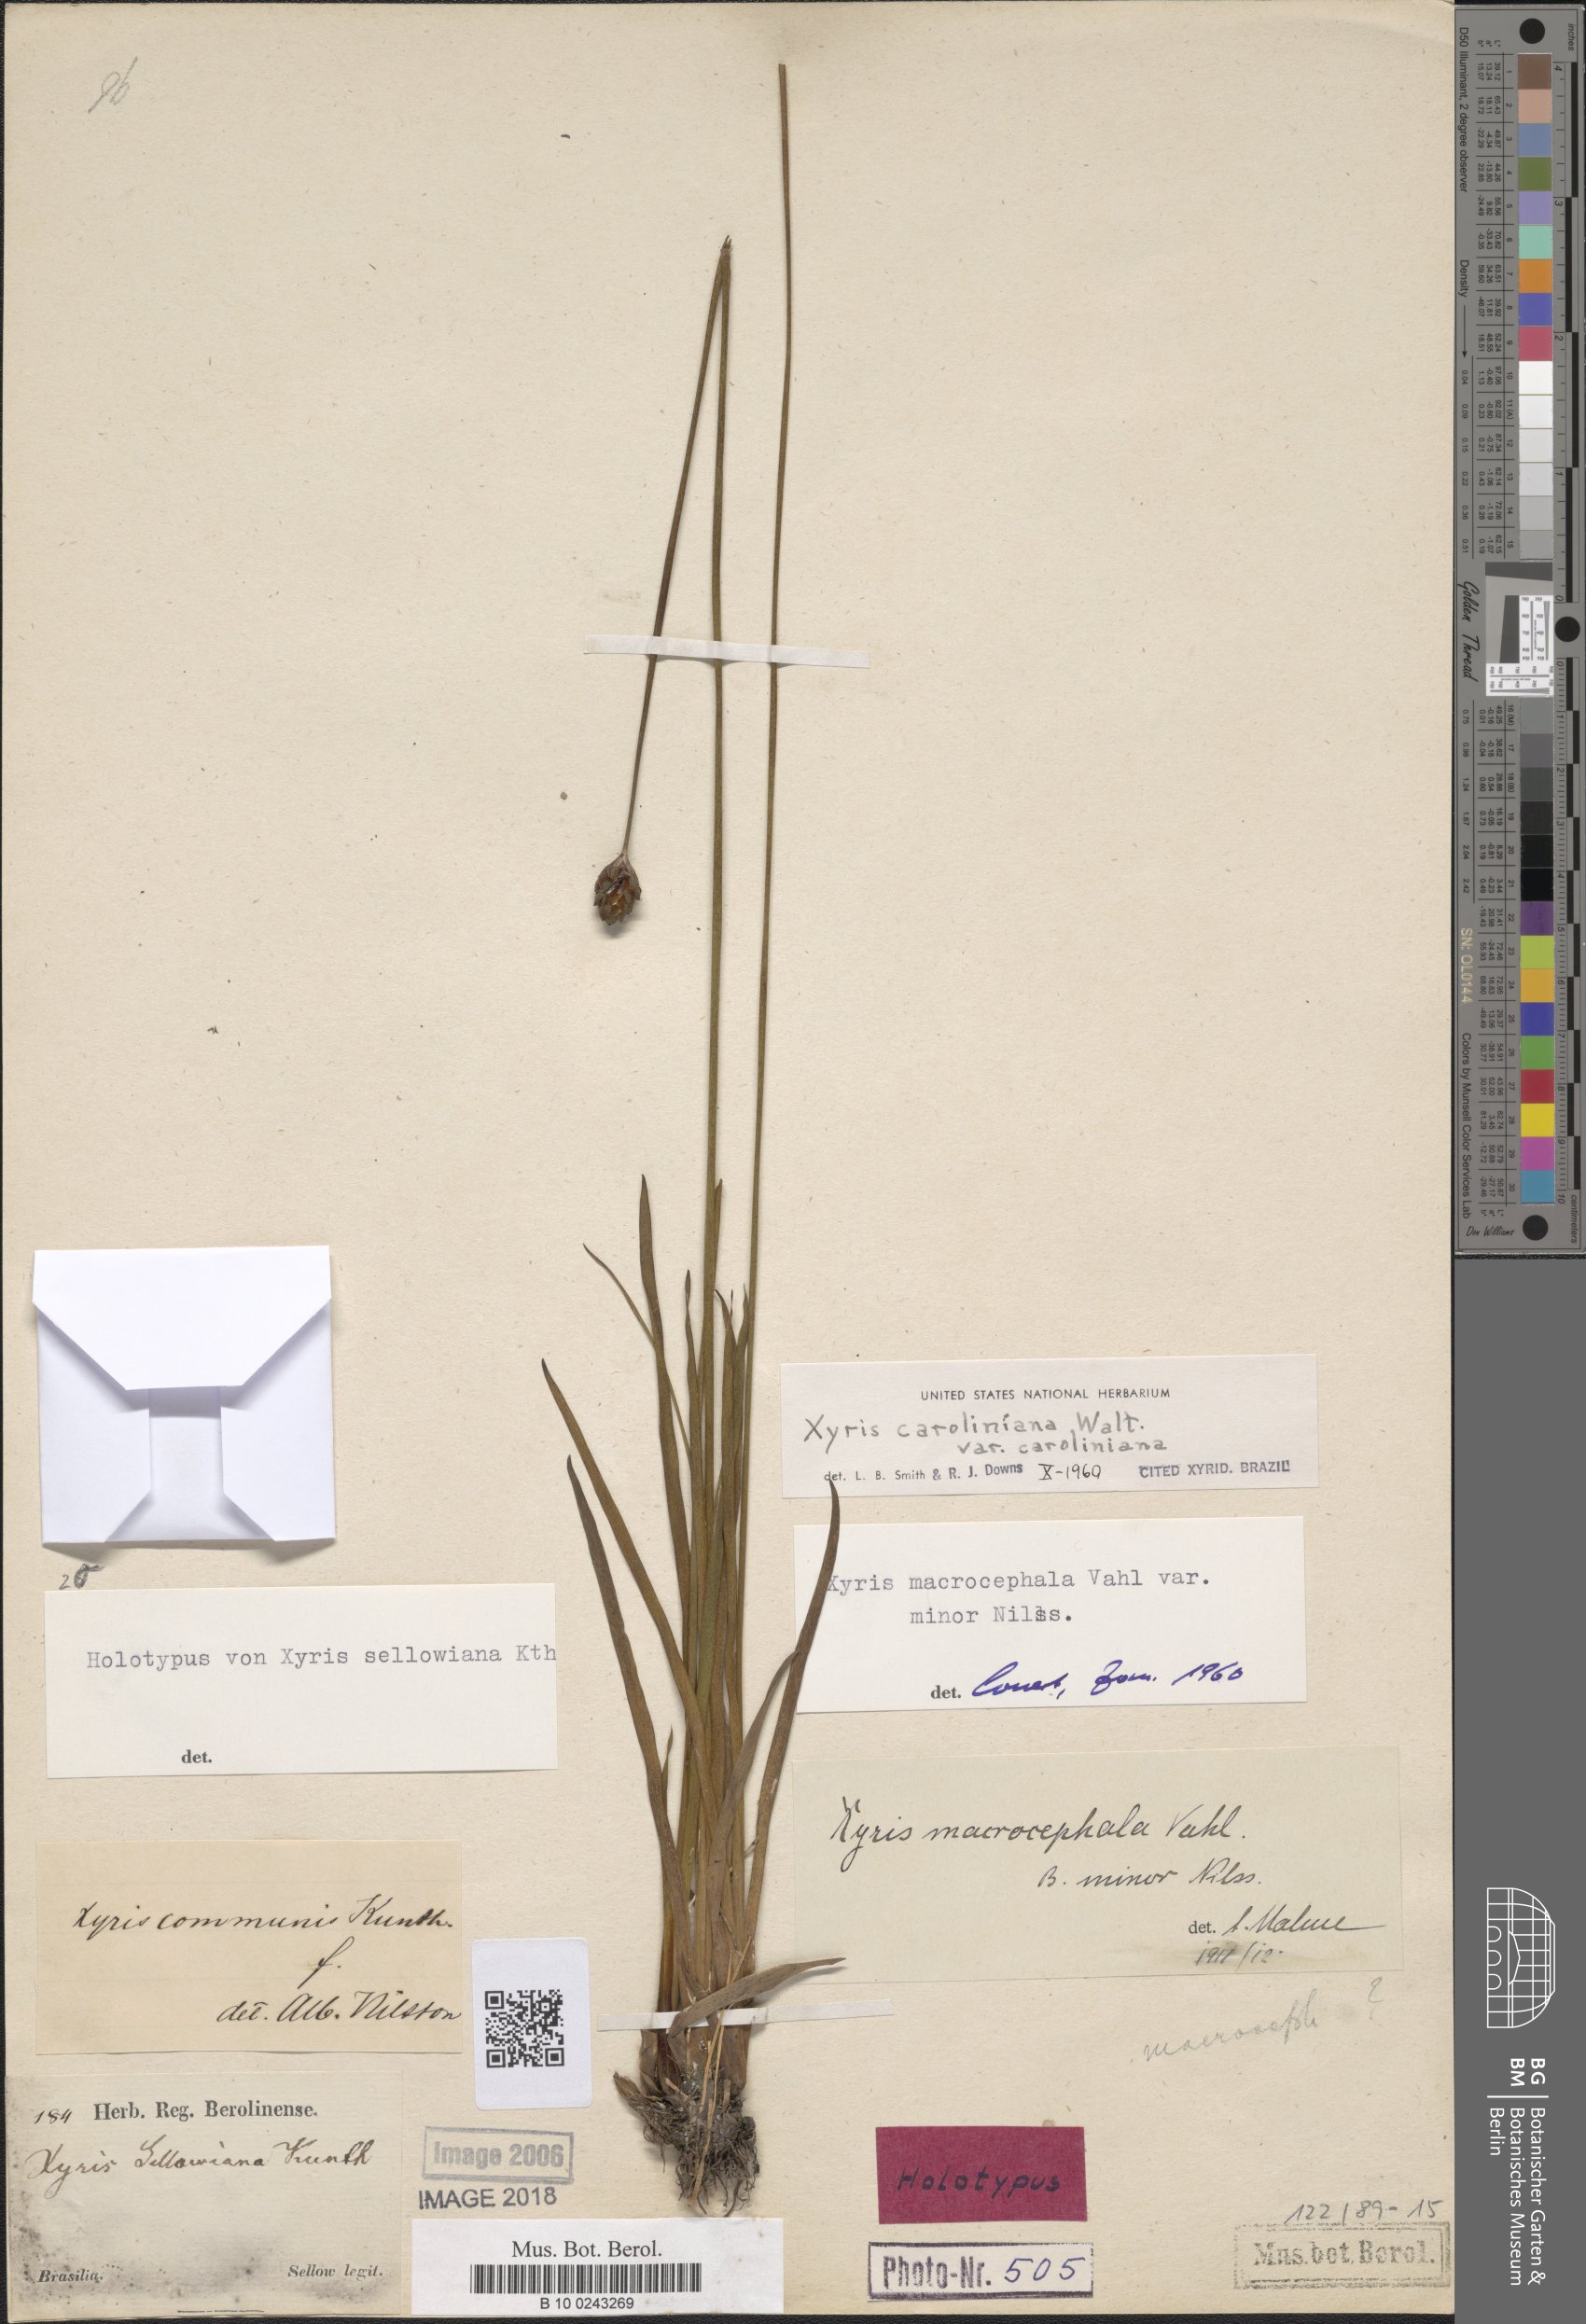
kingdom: Plantae
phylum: Tracheophyta
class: Liliopsida
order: Poales
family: Xyridaceae
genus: Xyris
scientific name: Xyris caroliniana
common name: Carolina yellow-eyed-grass
